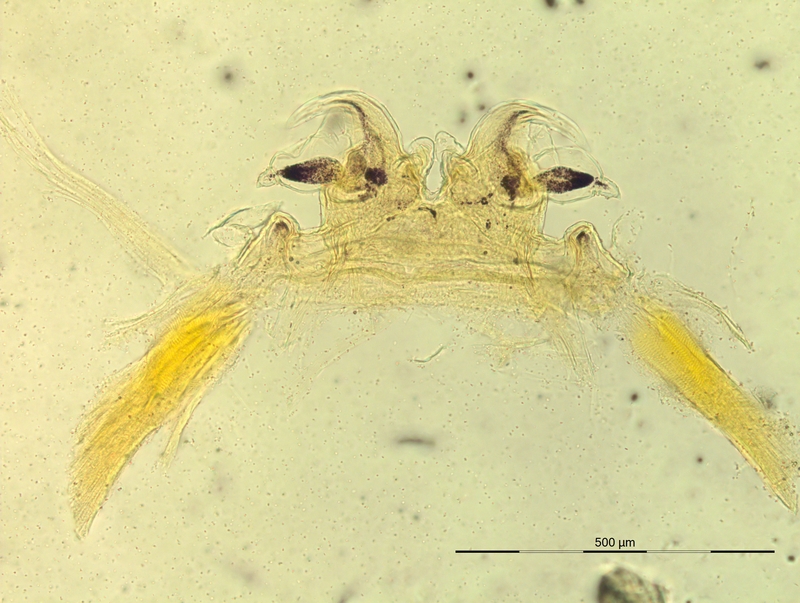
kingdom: Animalia
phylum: Arthropoda
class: Diplopoda
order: Chordeumatida
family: Craspedosomatidae
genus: Oroposoma
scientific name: Oroposoma granitivagum
